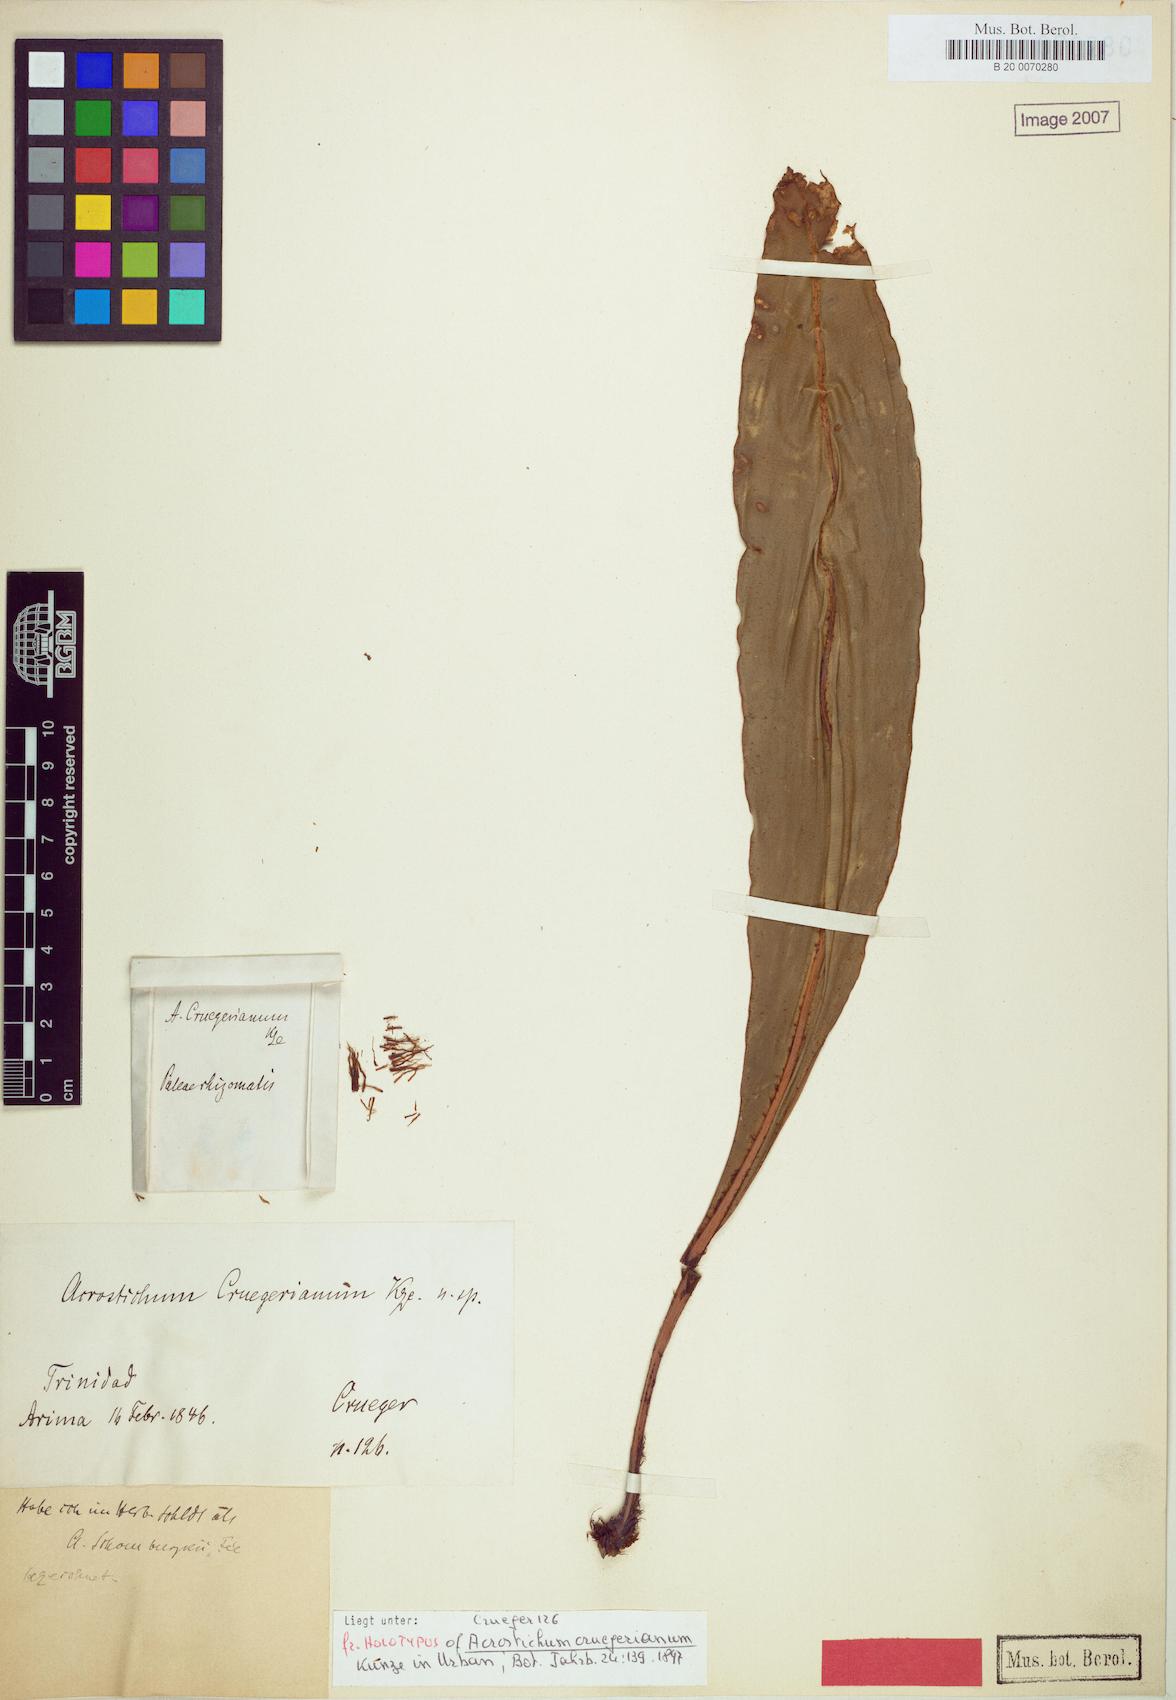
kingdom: Plantae
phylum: Tracheophyta
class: Polypodiopsida
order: Polypodiales
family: Dryopteridaceae
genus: Elaphoglossum
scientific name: Elaphoglossum luridum
